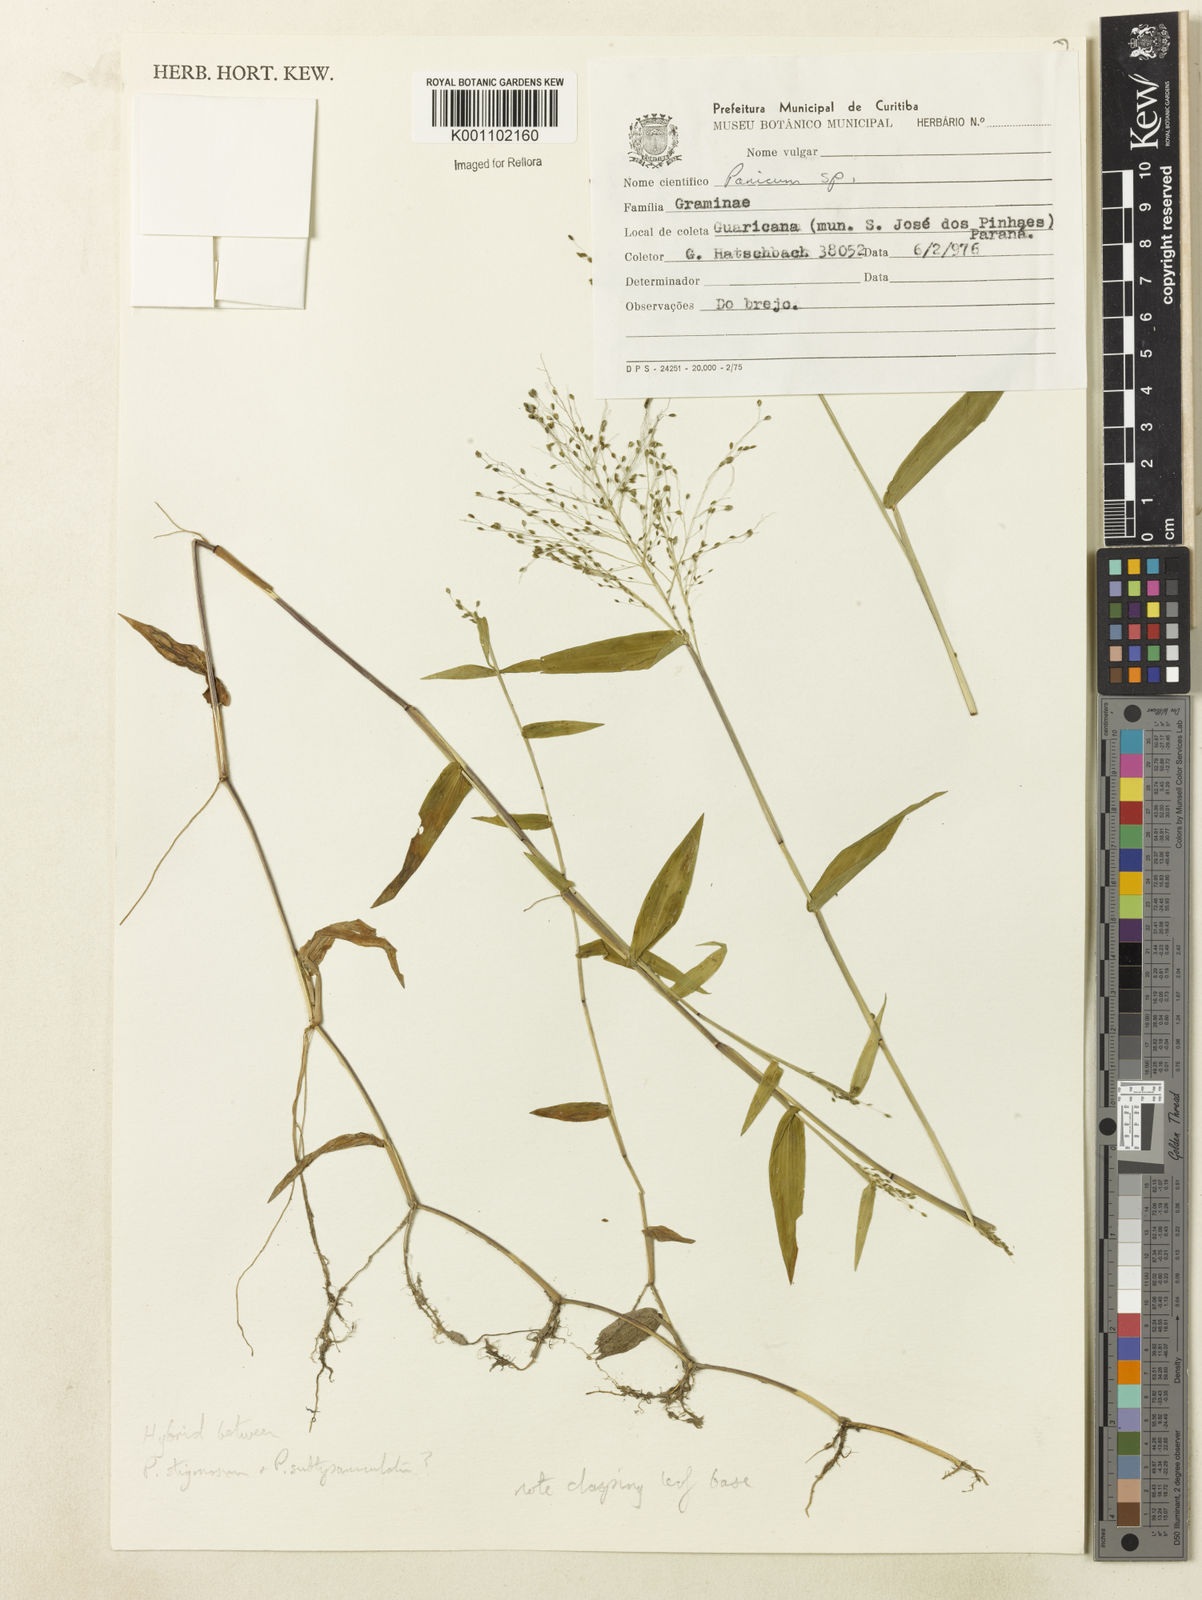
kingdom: Plantae
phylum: Tracheophyta
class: Liliopsida
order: Poales
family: Poaceae
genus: Dichanthelium
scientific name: Dichanthelium hebotes
